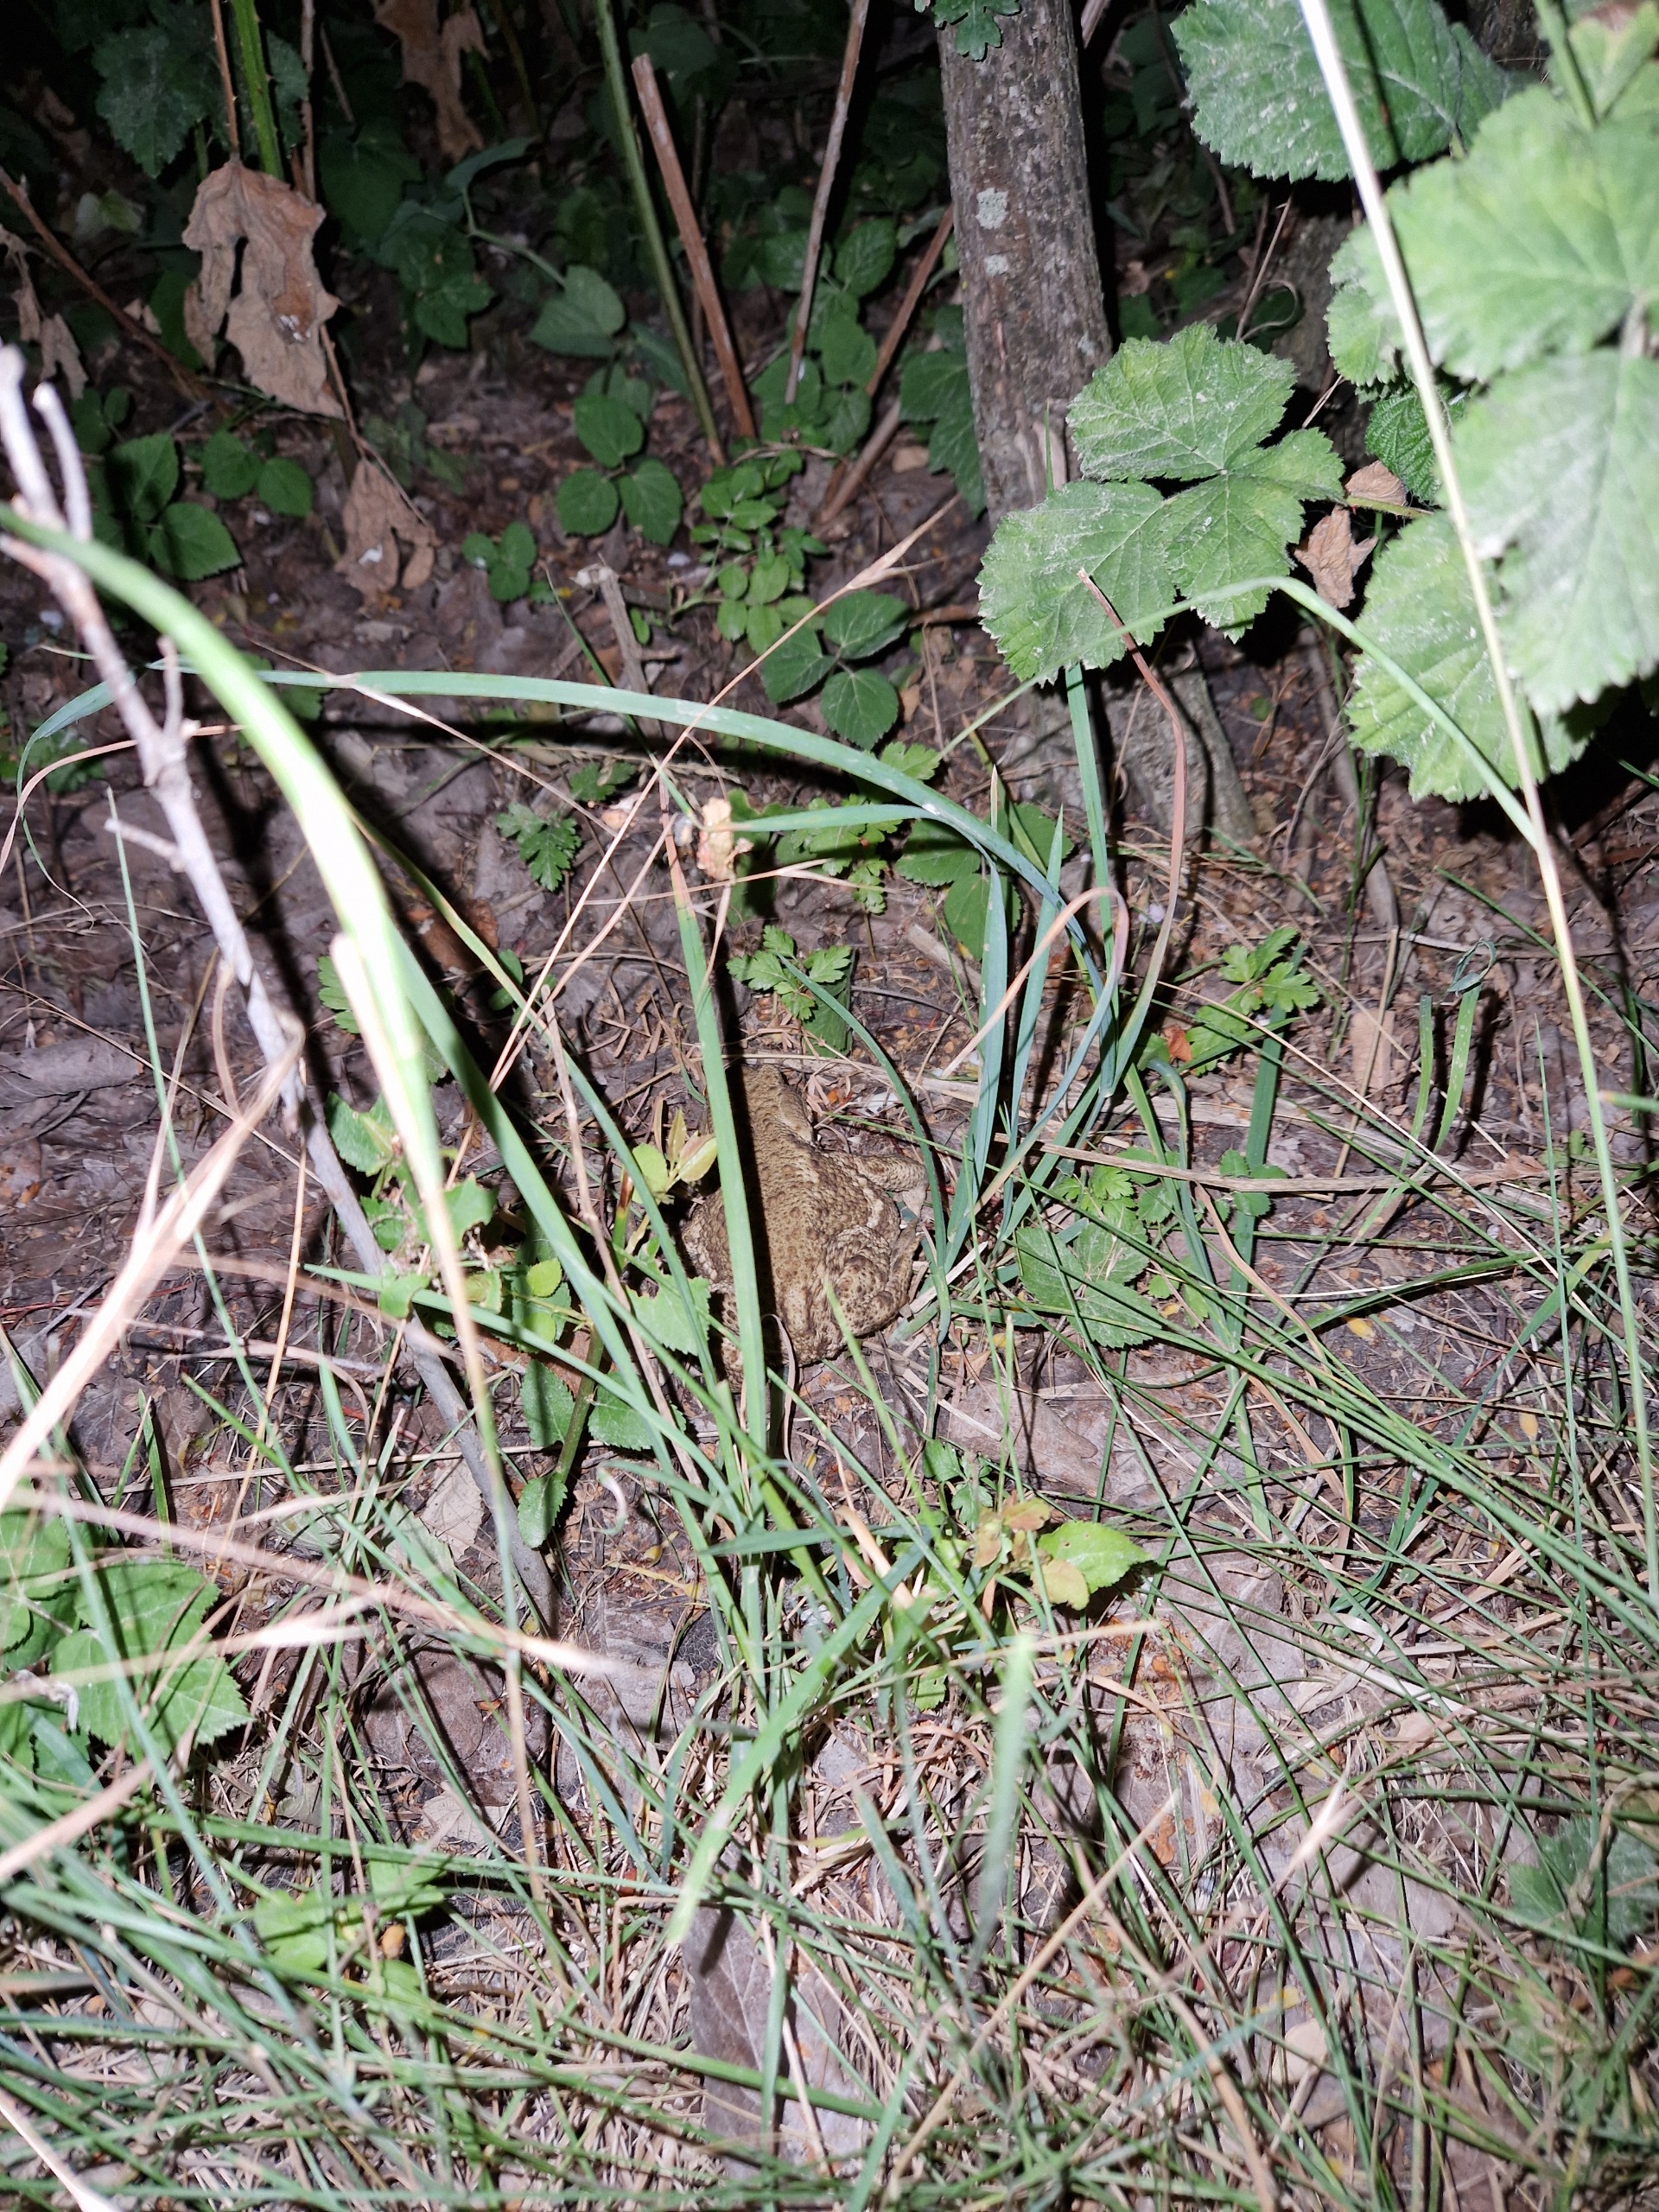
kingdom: Animalia
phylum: Chordata
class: Amphibia
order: Anura
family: Bufonidae
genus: Bufo
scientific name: Bufo bufo
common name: Skrubtudse
